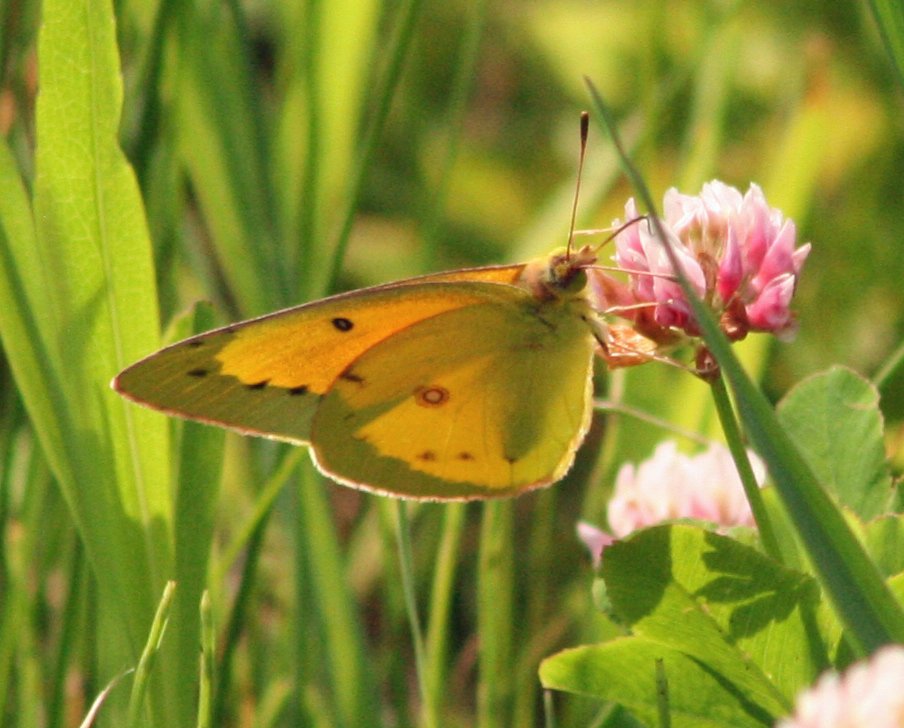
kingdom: Animalia
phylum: Arthropoda
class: Insecta
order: Lepidoptera
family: Pieridae
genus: Colias
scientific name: Colias eurytheme
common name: Orange Sulphur
